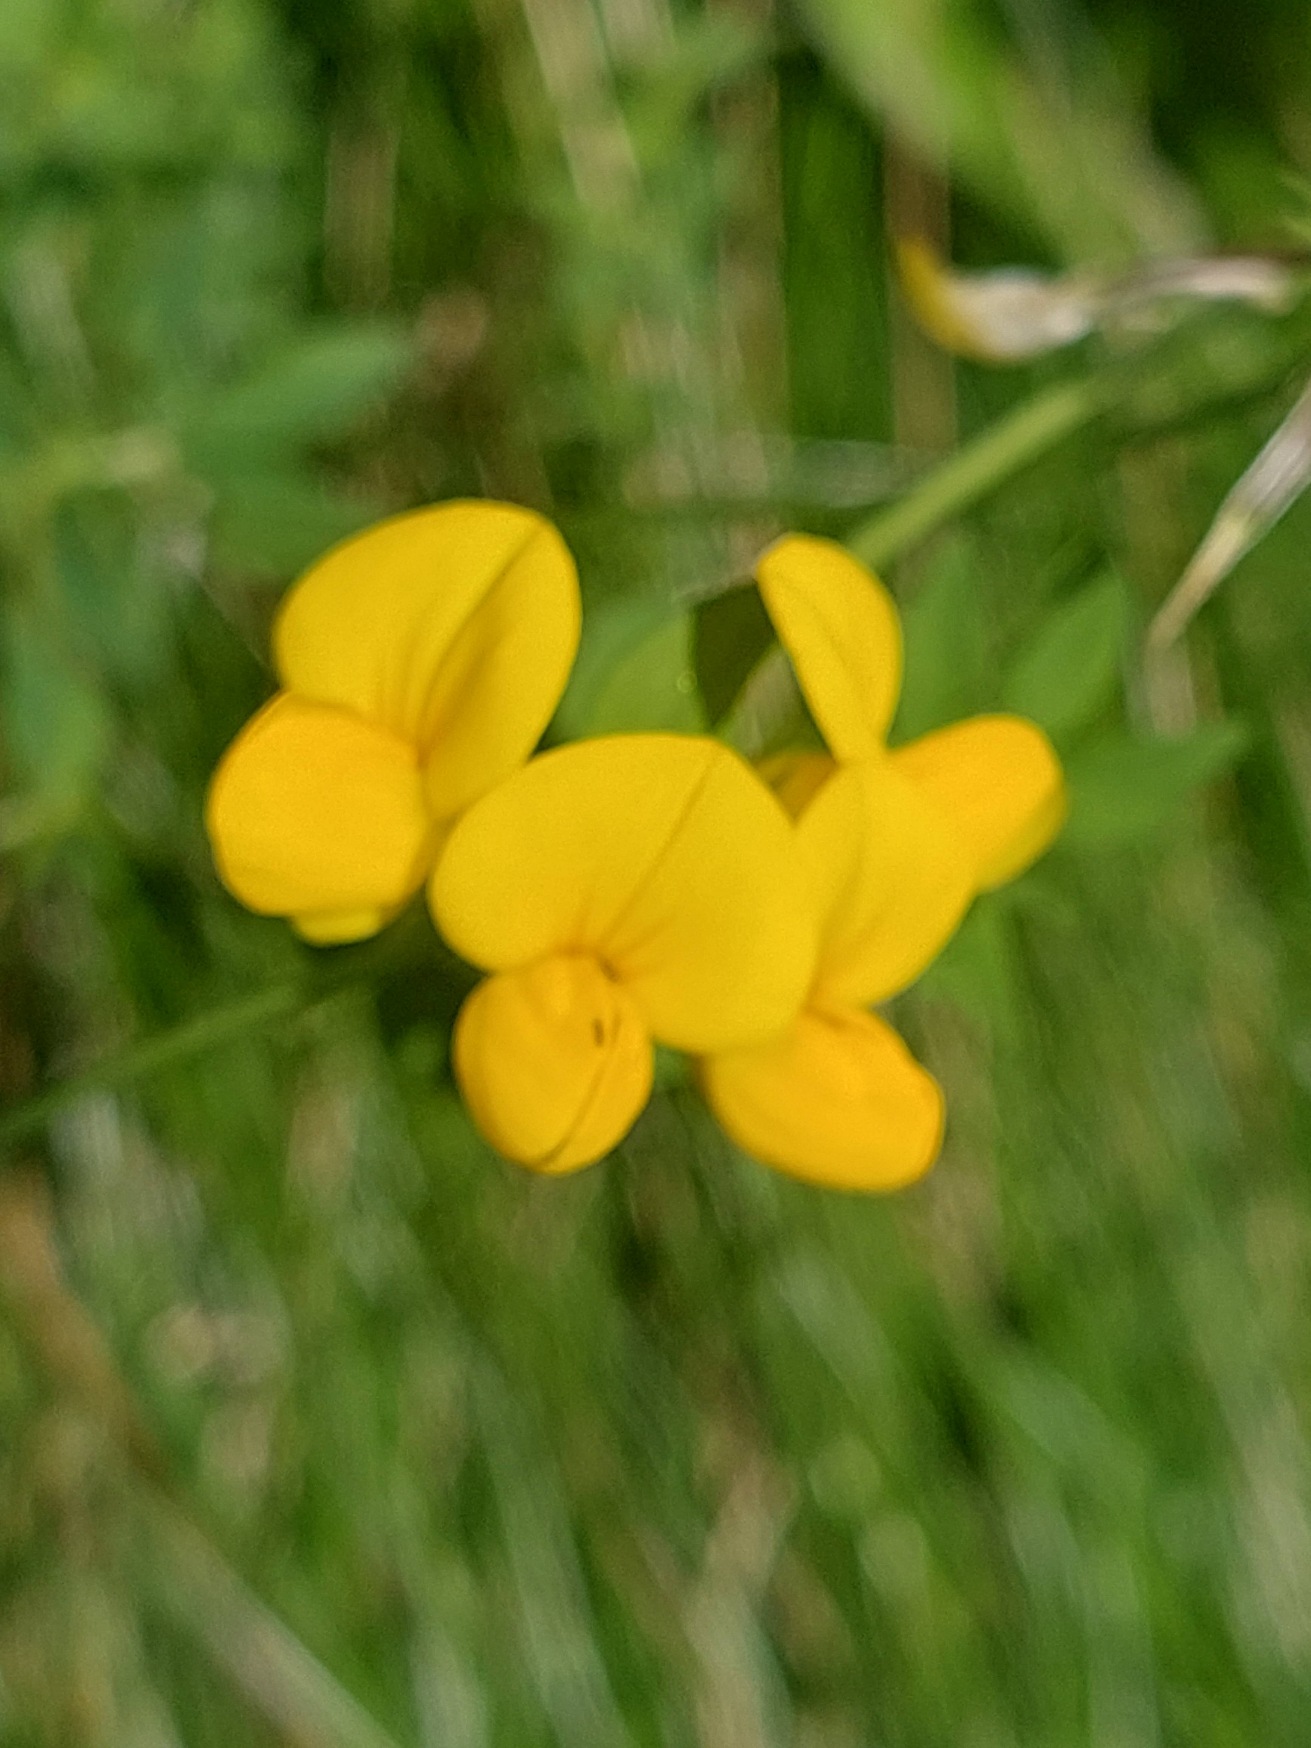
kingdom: Plantae
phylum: Tracheophyta
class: Magnoliopsida
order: Fabales
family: Fabaceae
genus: Lotus
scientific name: Lotus corniculatus
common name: Almindelig kællingetand
